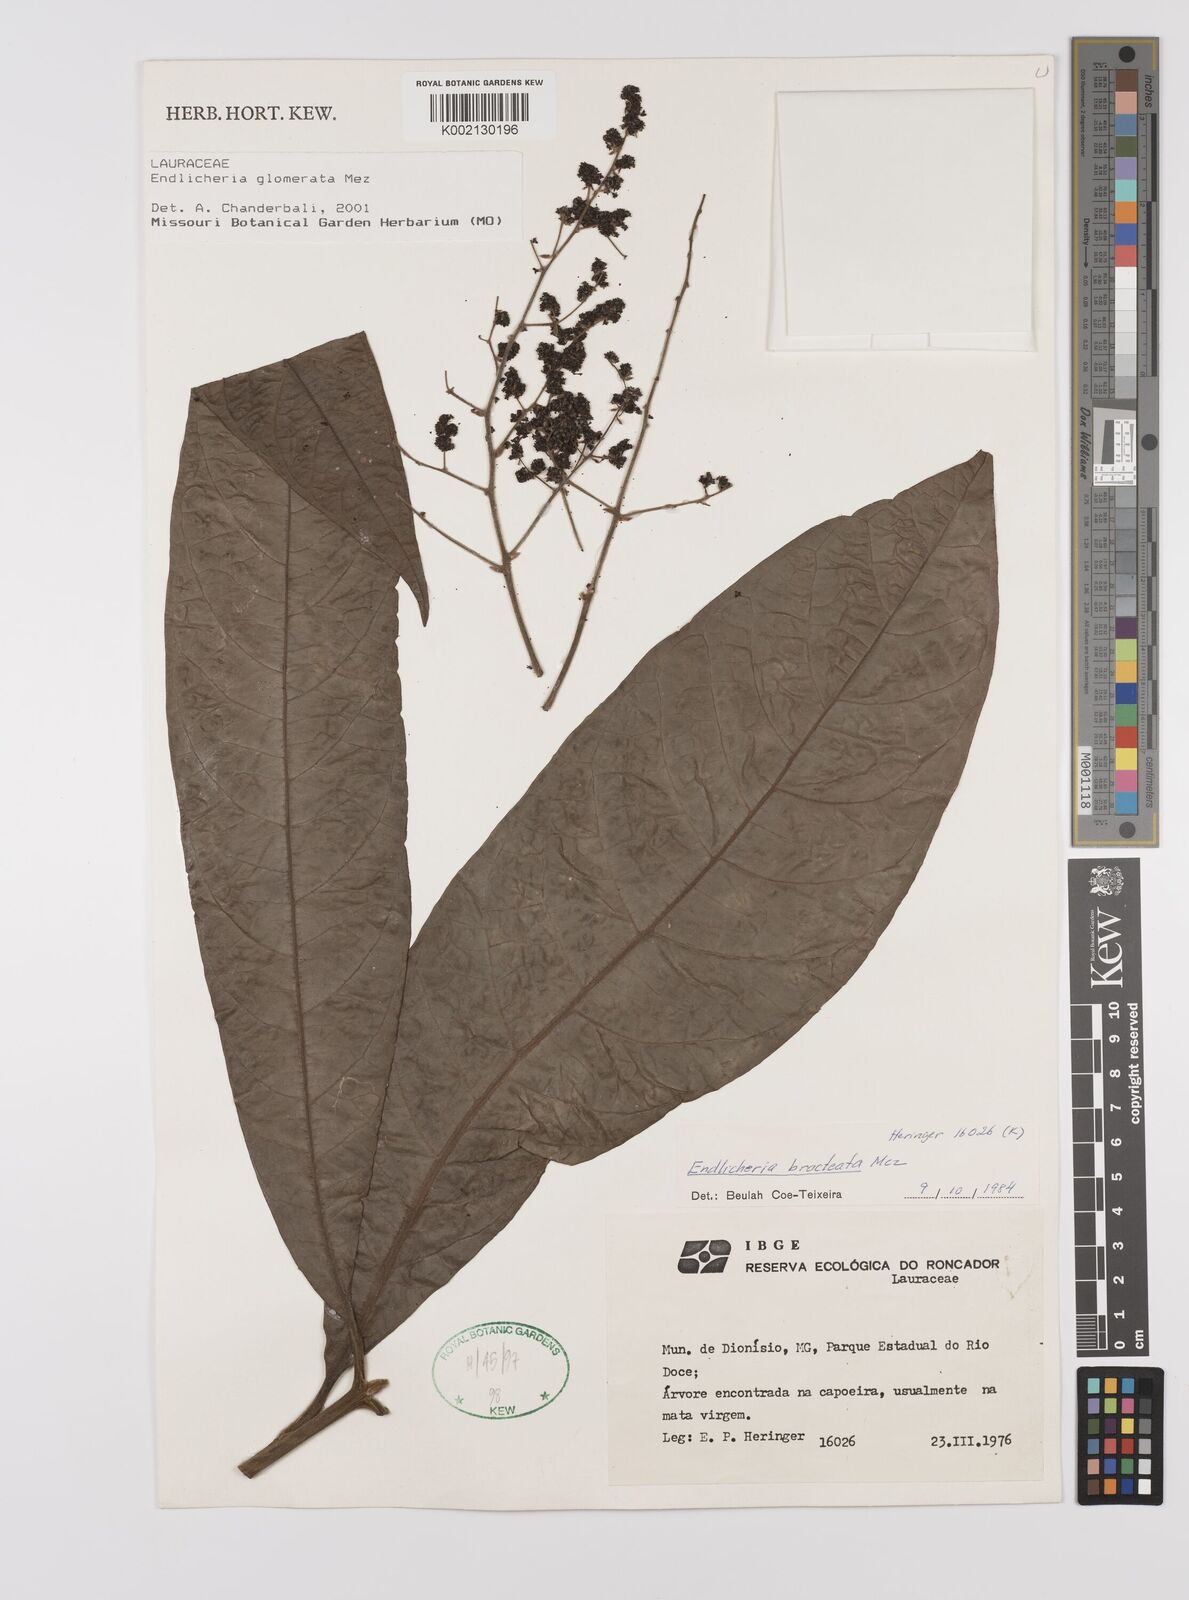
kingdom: Plantae
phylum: Tracheophyta
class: Magnoliopsida
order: Laurales
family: Lauraceae
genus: Endlicheria
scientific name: Endlicheria glomerata
